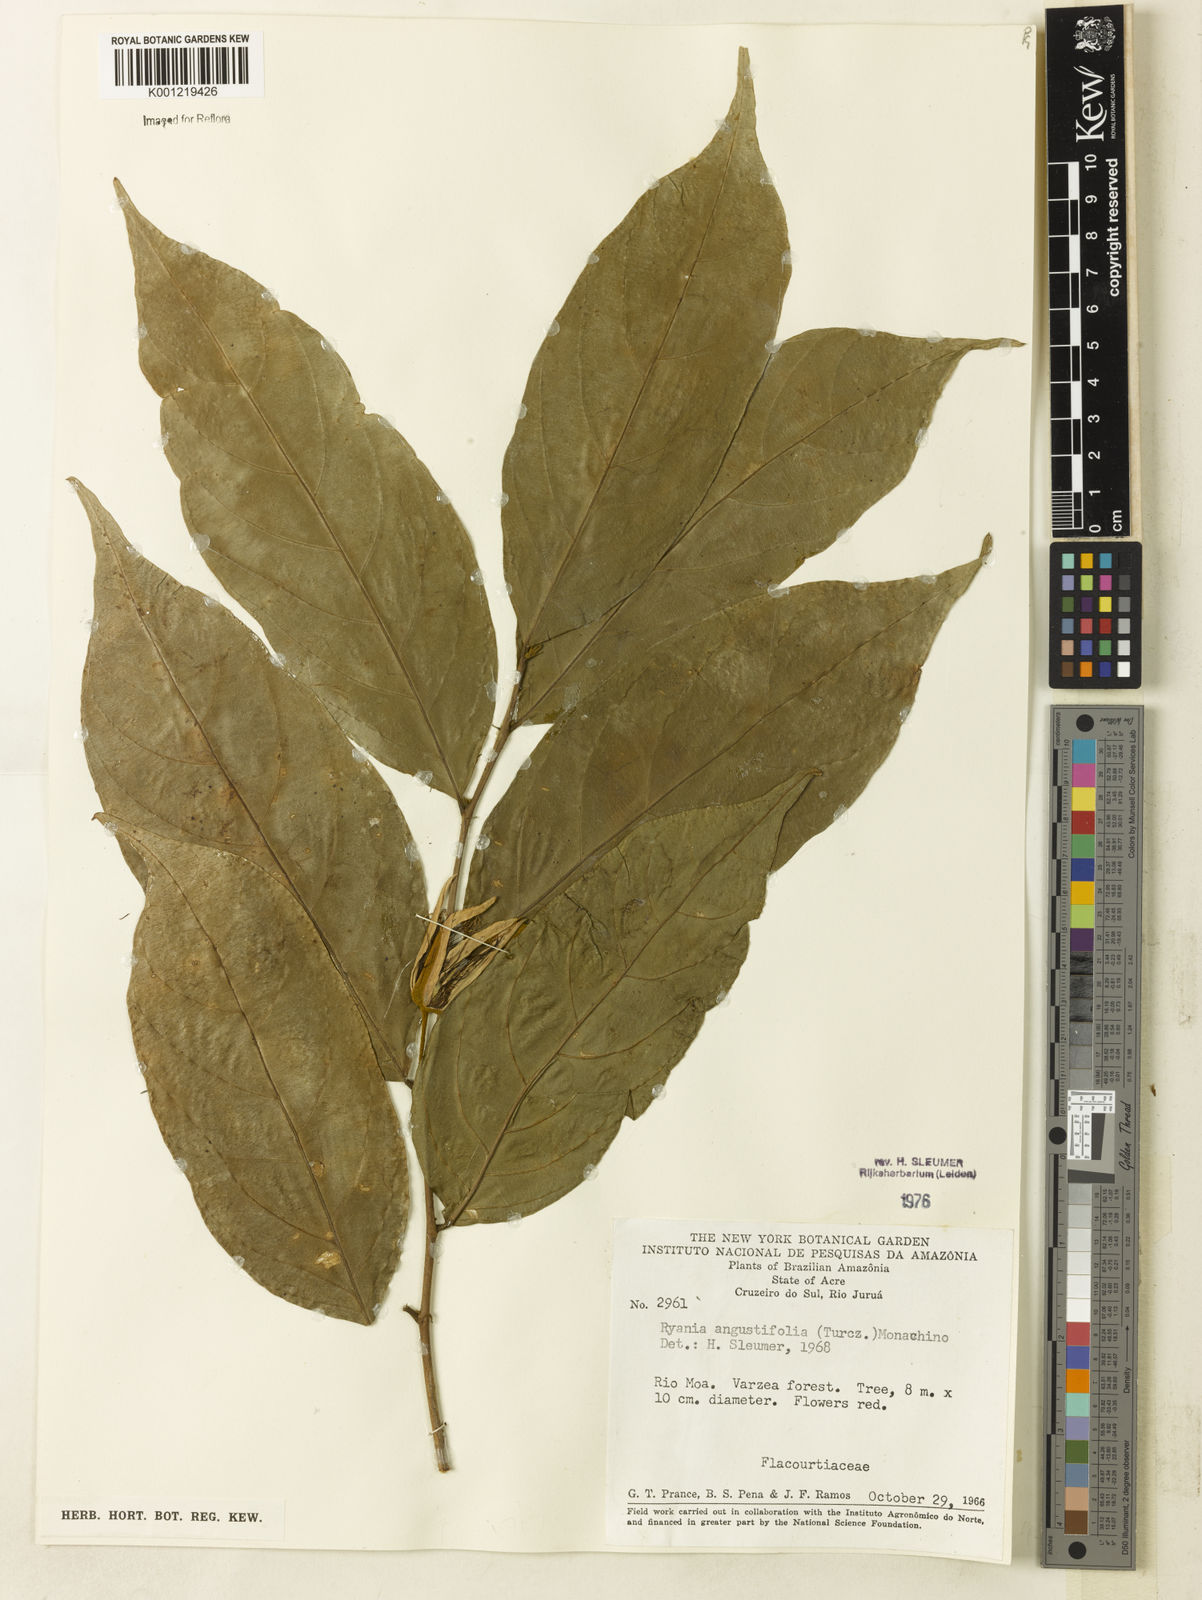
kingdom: Plantae
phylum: Tracheophyta
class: Magnoliopsida
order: Malpighiales
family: Salicaceae
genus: Ryania
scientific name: Ryania angustifolia
